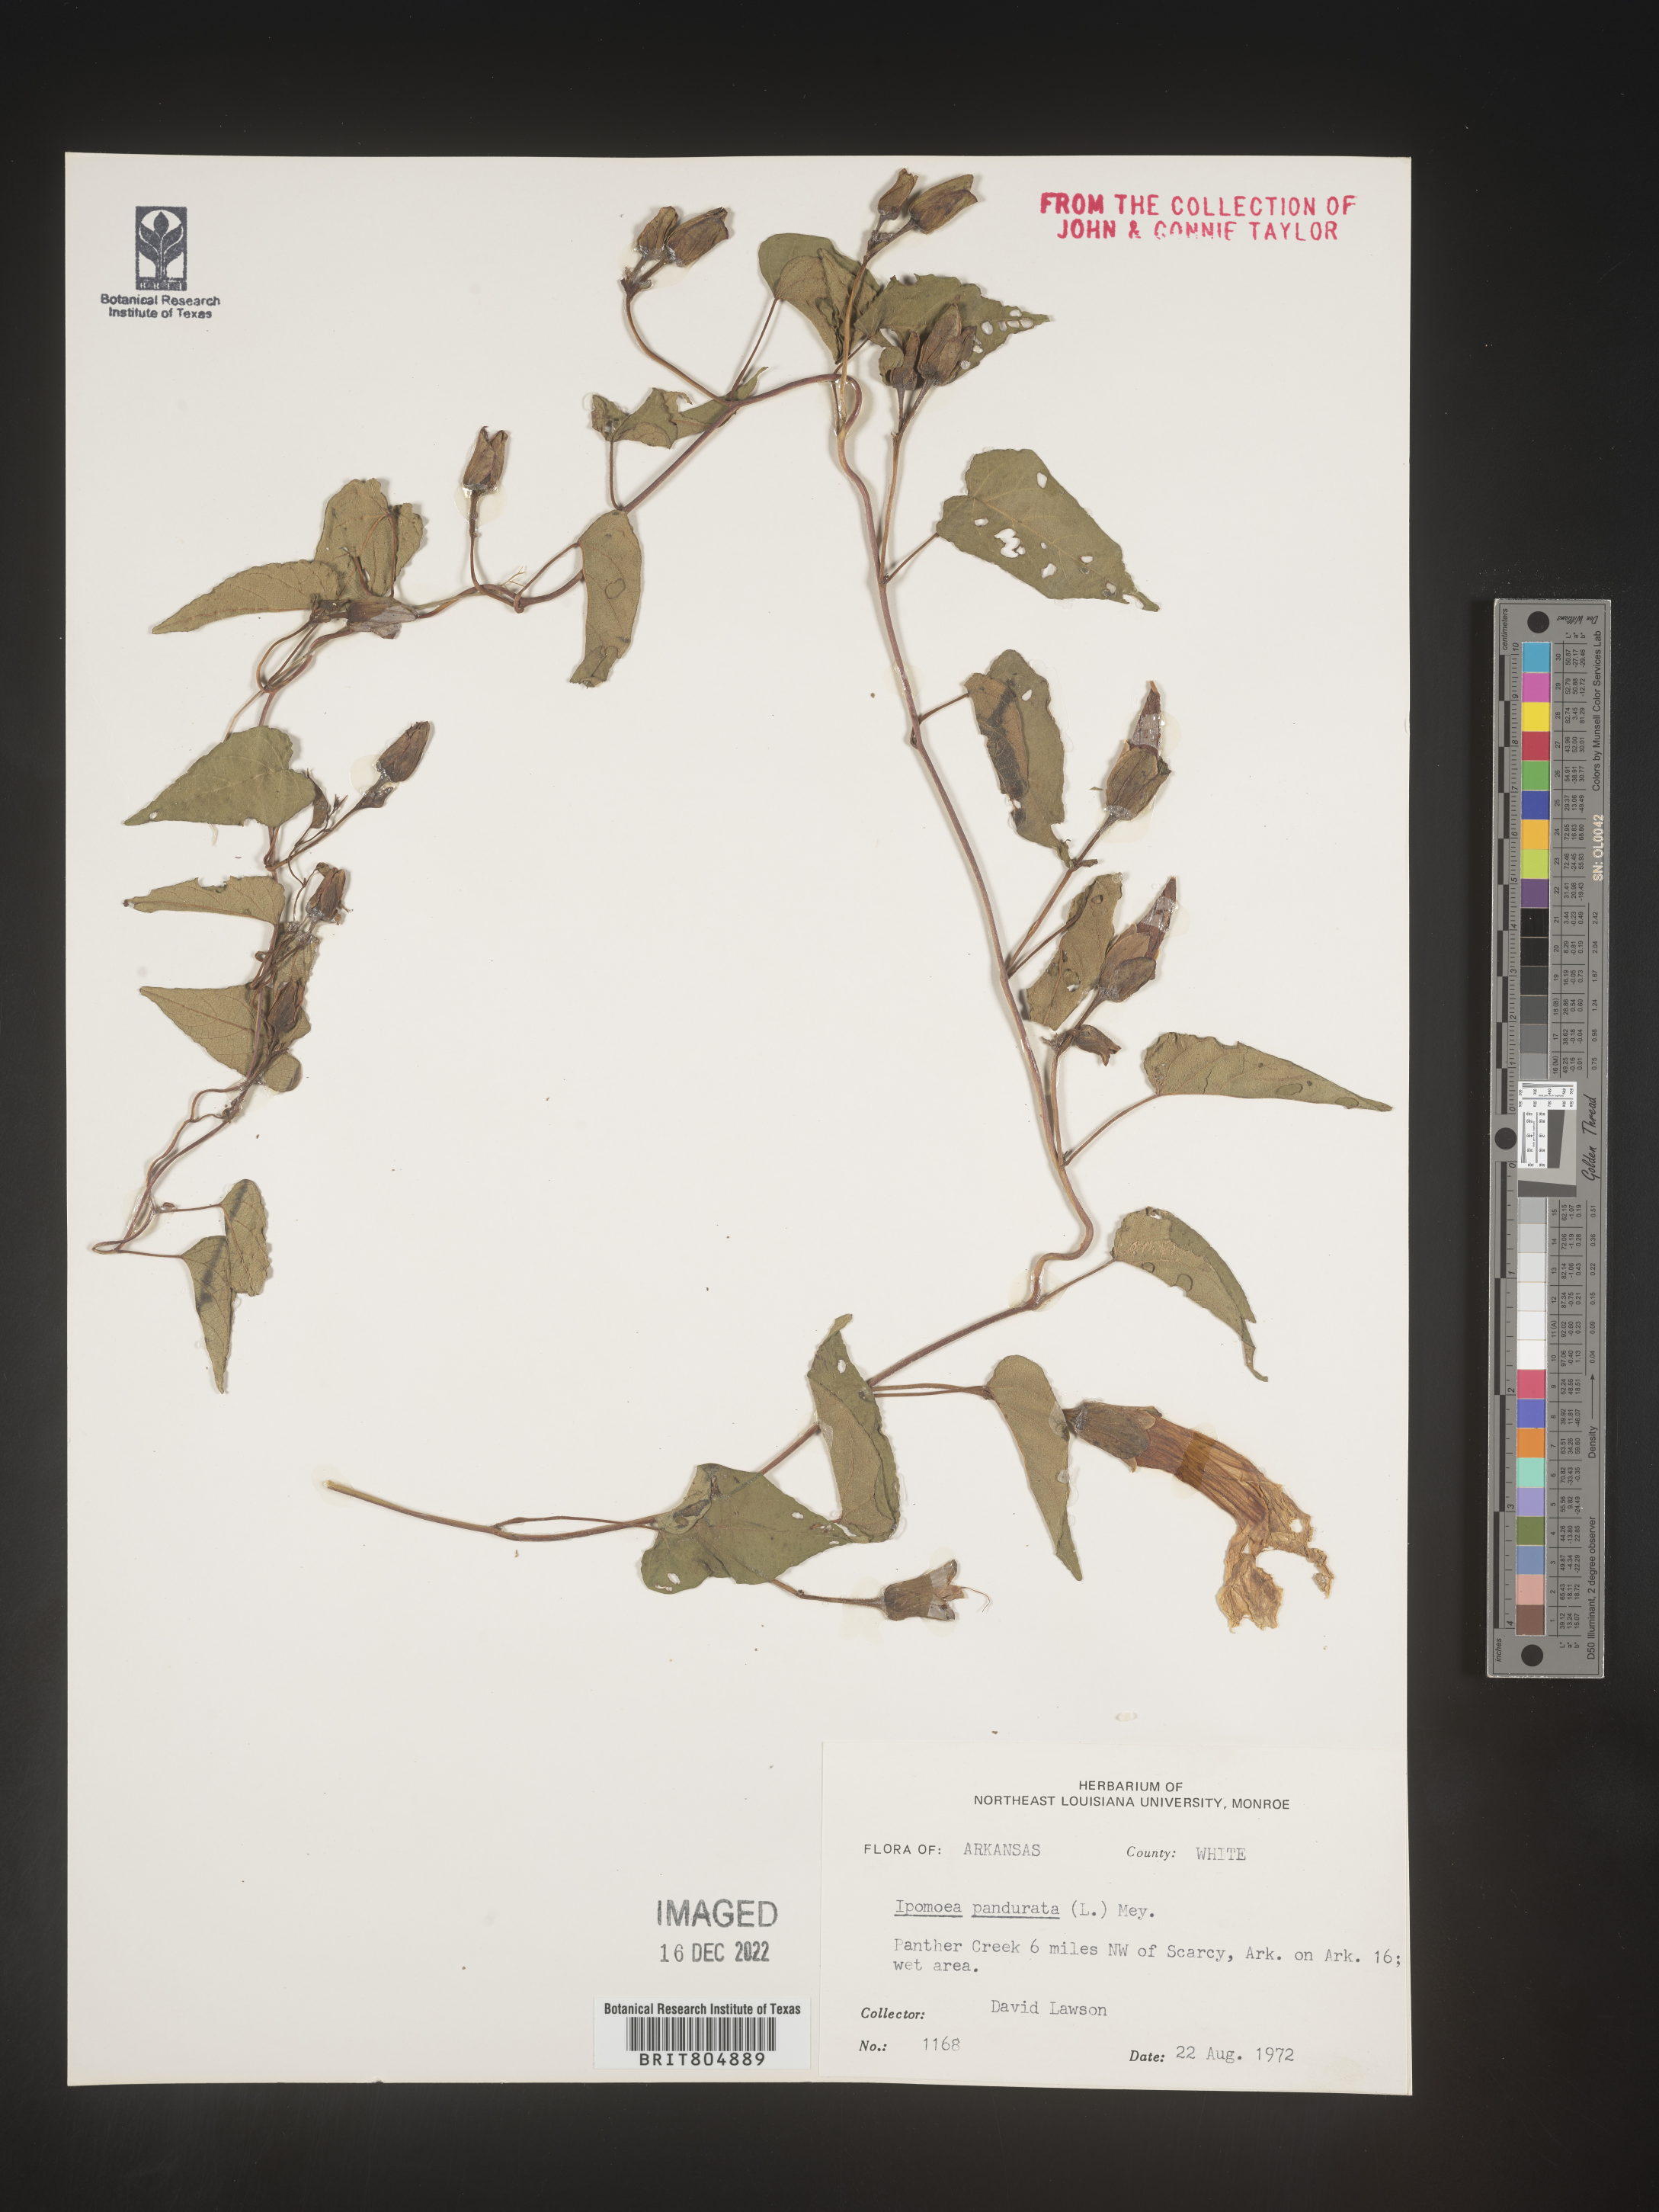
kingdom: Plantae
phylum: Tracheophyta
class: Magnoliopsida
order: Solanales
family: Convolvulaceae
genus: Ipomoea
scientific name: Ipomoea pandurata
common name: Man-of-the-earth
